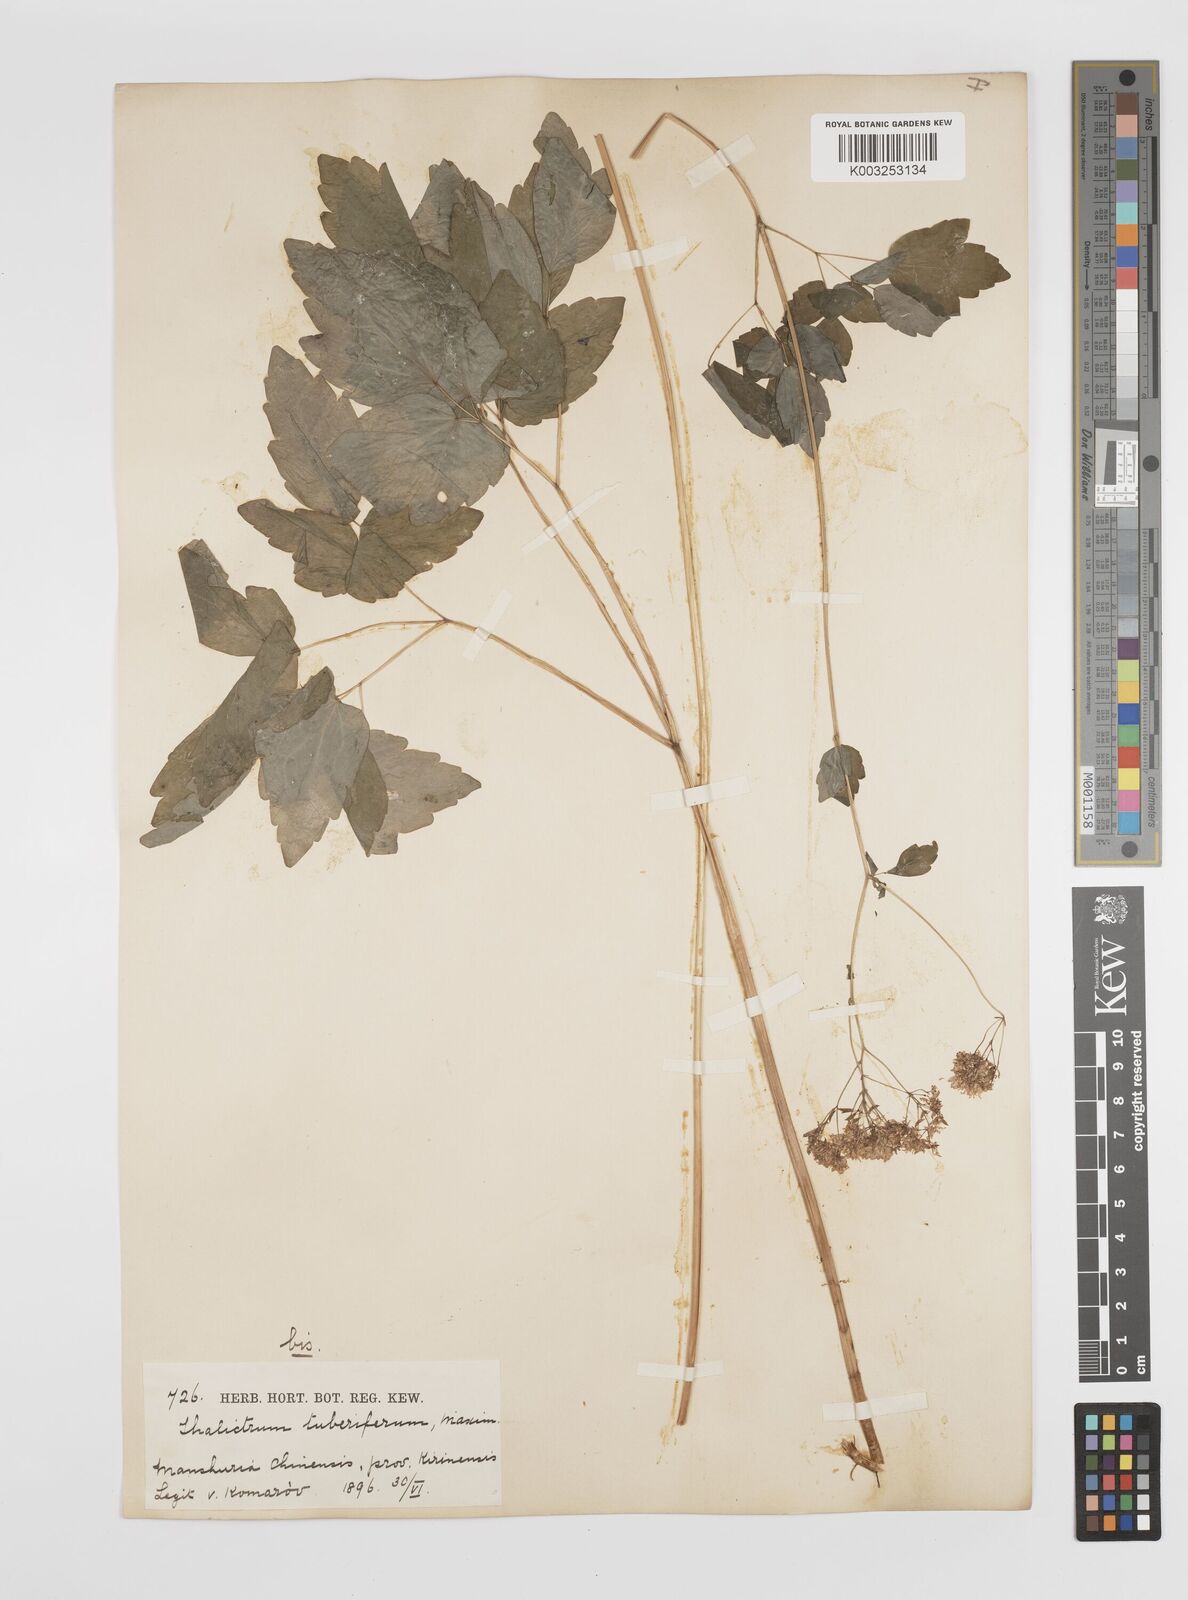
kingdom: Plantae
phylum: Tracheophyta
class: Magnoliopsida
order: Ranunculales
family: Ranunculaceae
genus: Thalictrum
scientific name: Thalictrum tuberiferum
